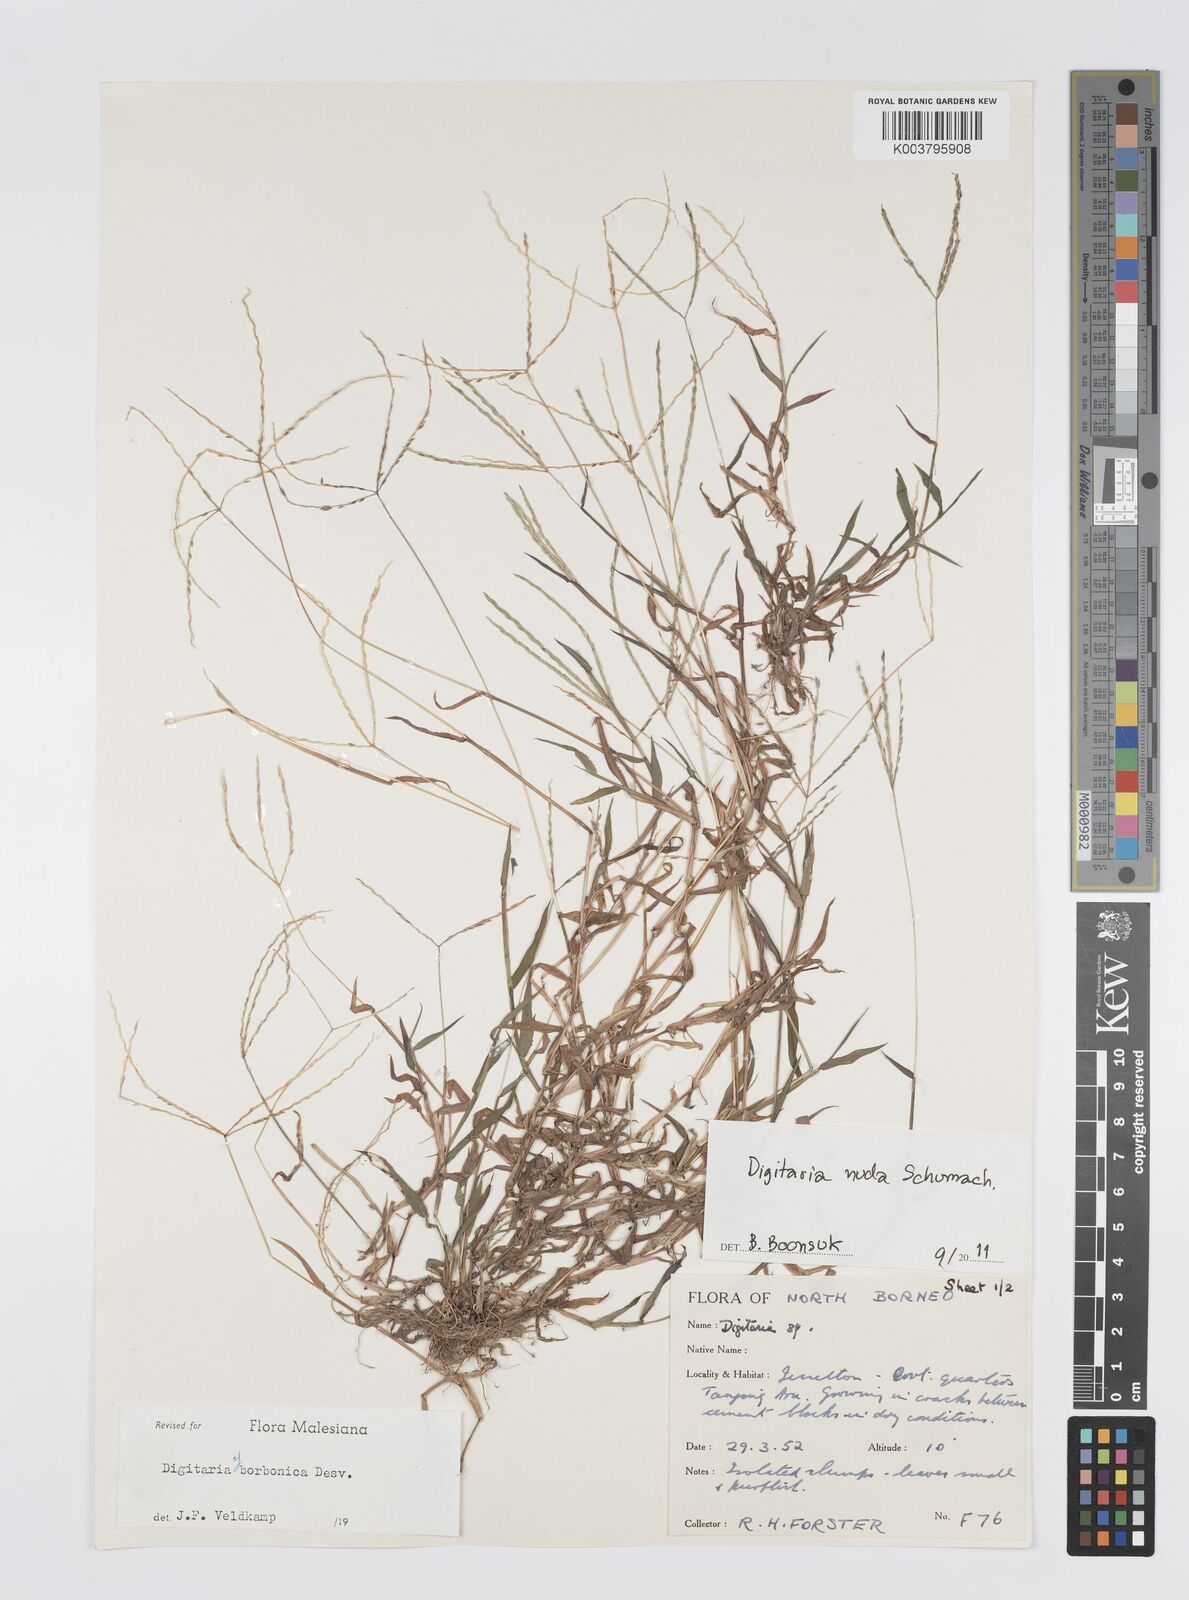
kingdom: Plantae
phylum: Tracheophyta
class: Liliopsida
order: Poales
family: Poaceae
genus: Digitaria
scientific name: Digitaria nuda
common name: Naked crabgrass
